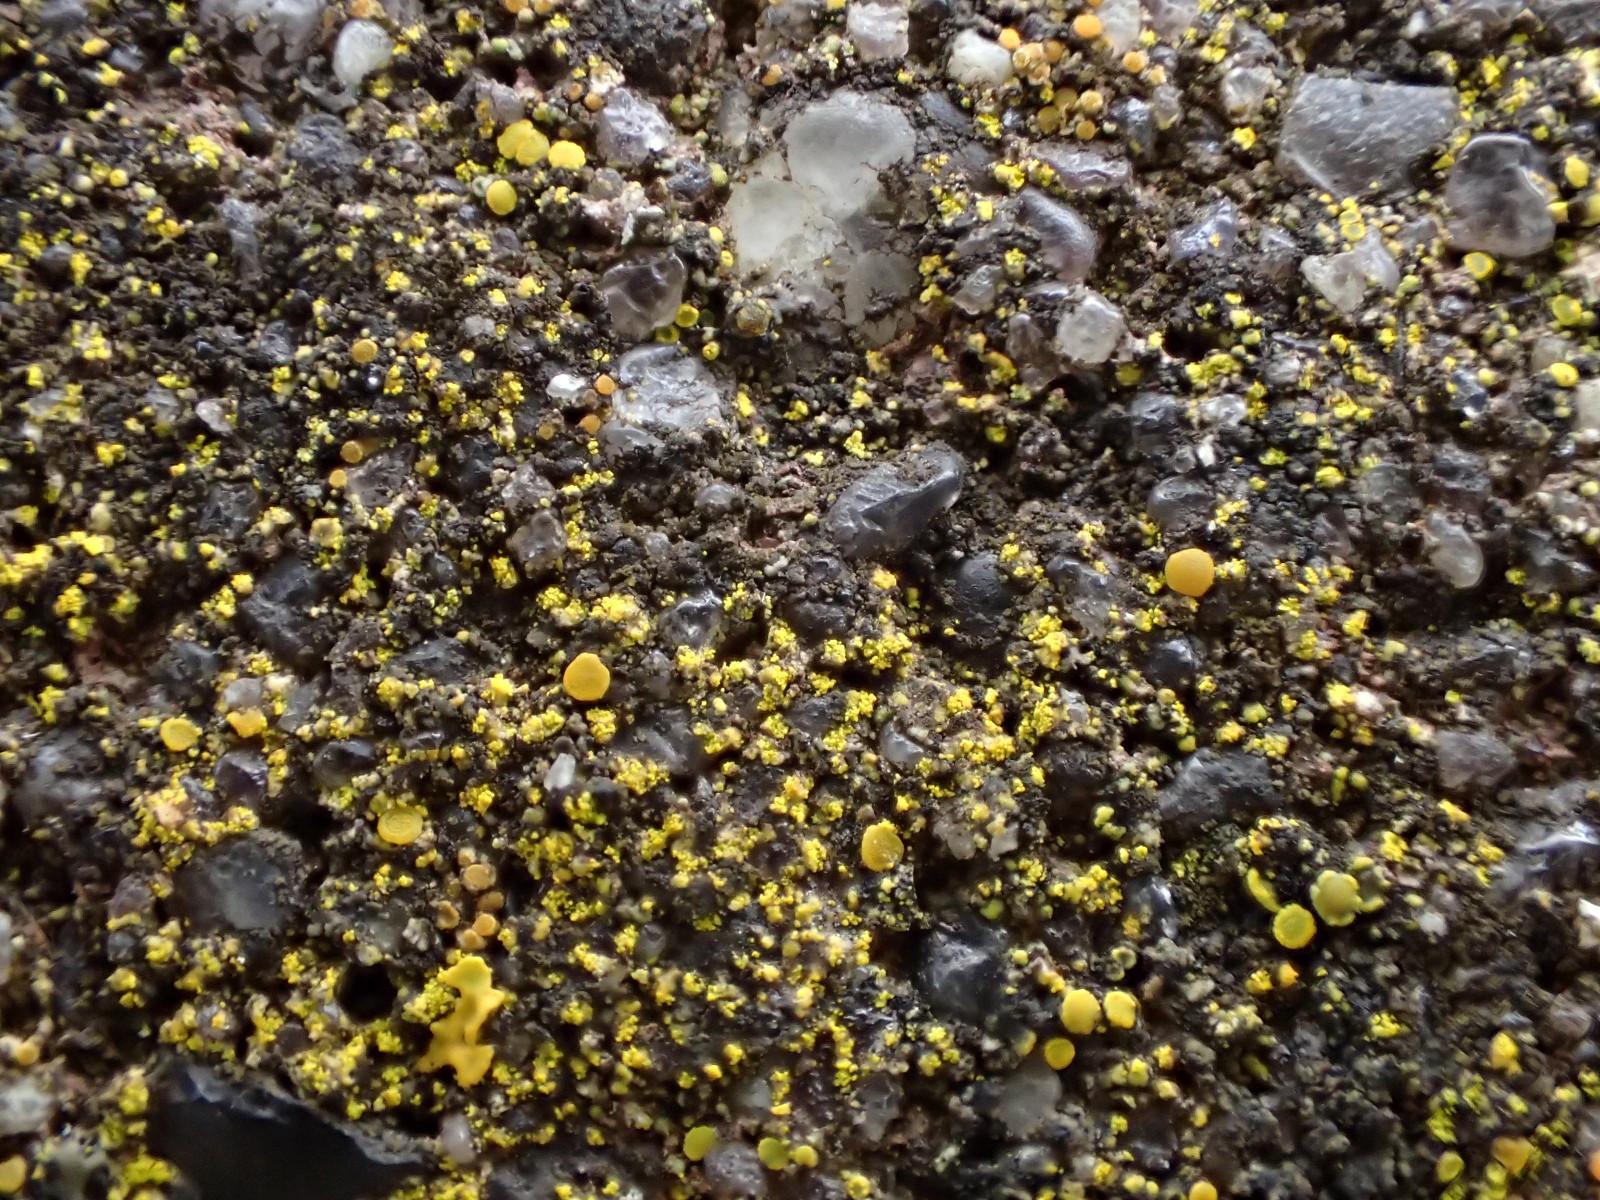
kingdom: Fungi
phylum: Ascomycota
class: Candelariomycetes
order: Candelariales
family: Candelariaceae
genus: Candelariella
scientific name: Candelariella aurella
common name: liden æggeblommelav
